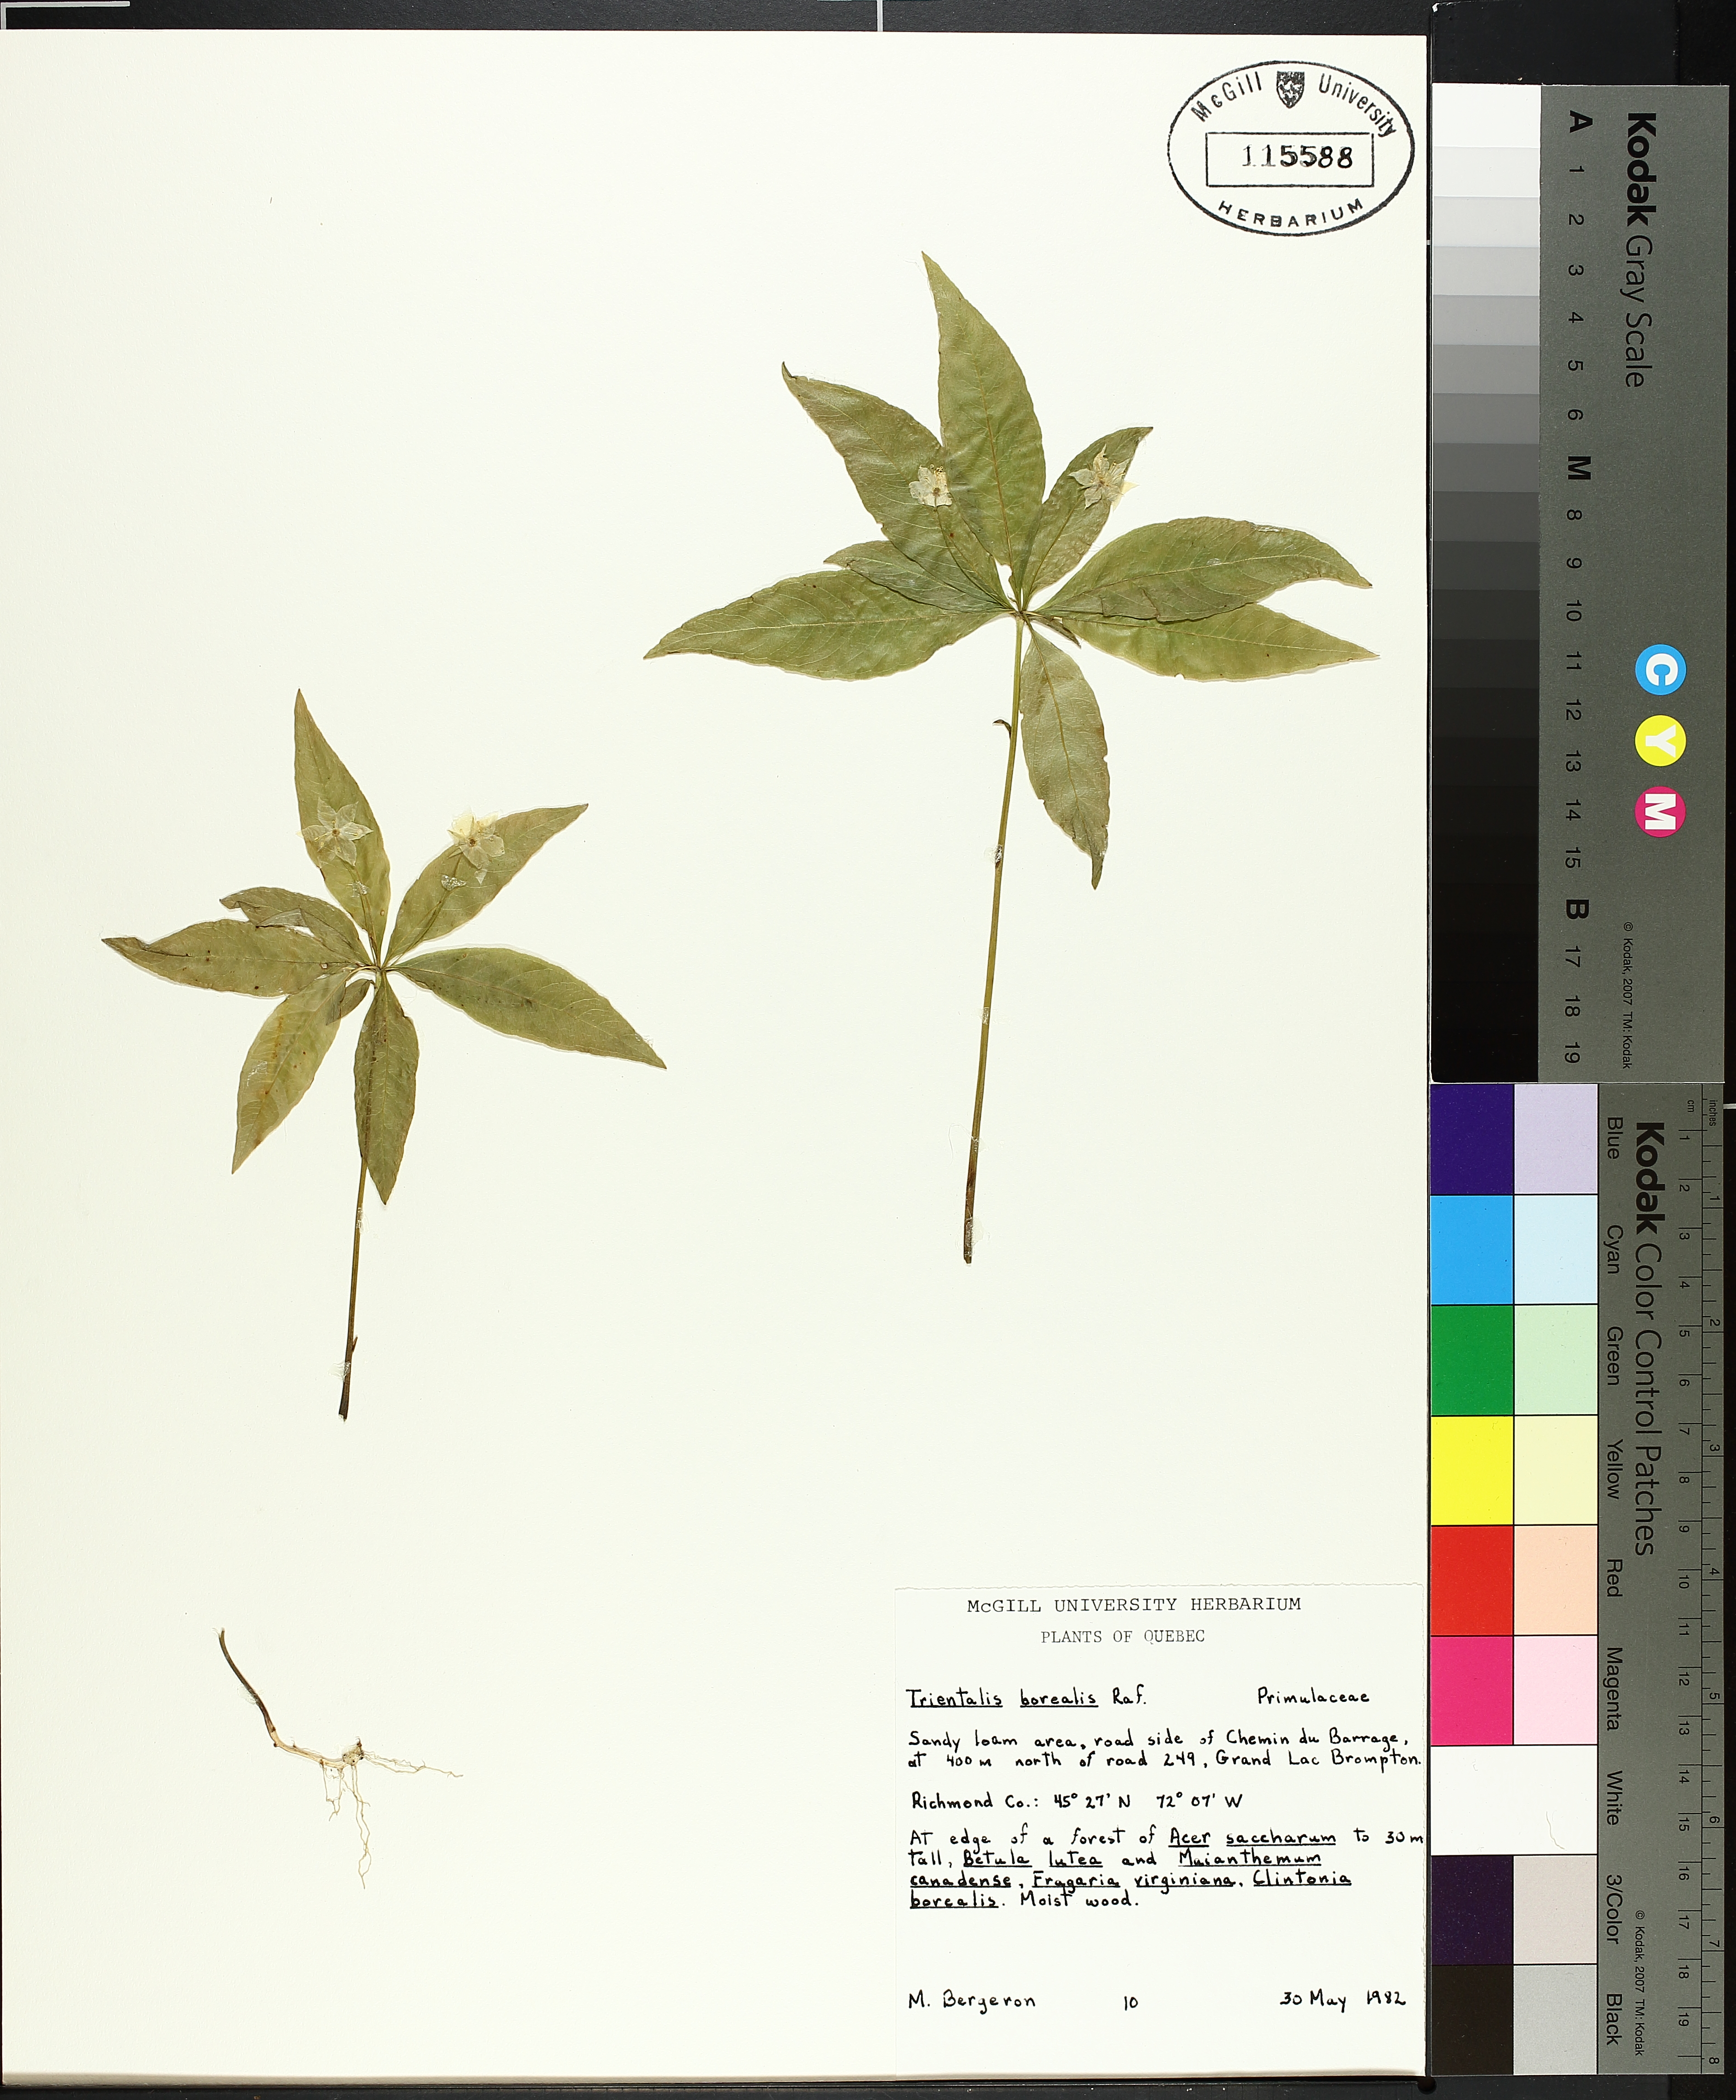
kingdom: Plantae
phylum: Tracheophyta
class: Magnoliopsida
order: Lamiales
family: Lamiaceae
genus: Mentha
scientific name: Mentha arvensis
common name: Corn mint
